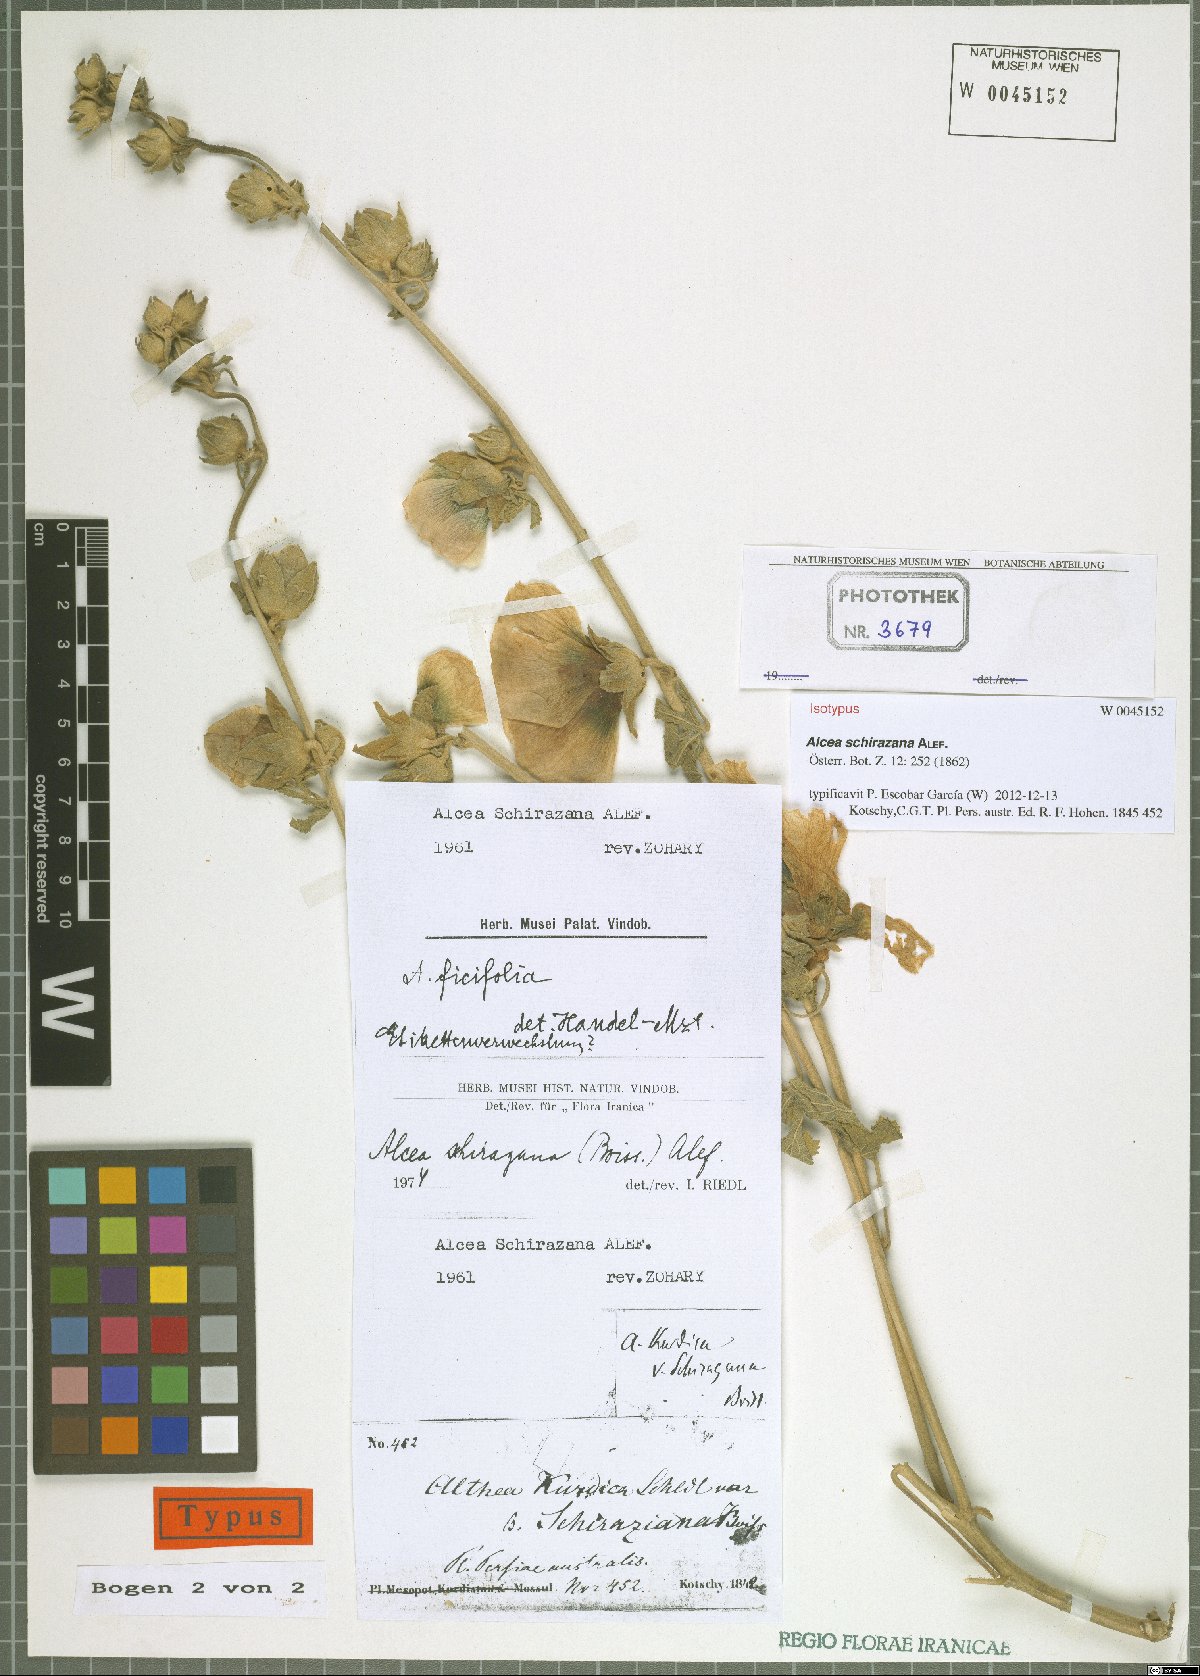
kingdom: Plantae
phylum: Tracheophyta
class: Magnoliopsida
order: Malvales
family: Malvaceae
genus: Alcea
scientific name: Alcea schirazana
